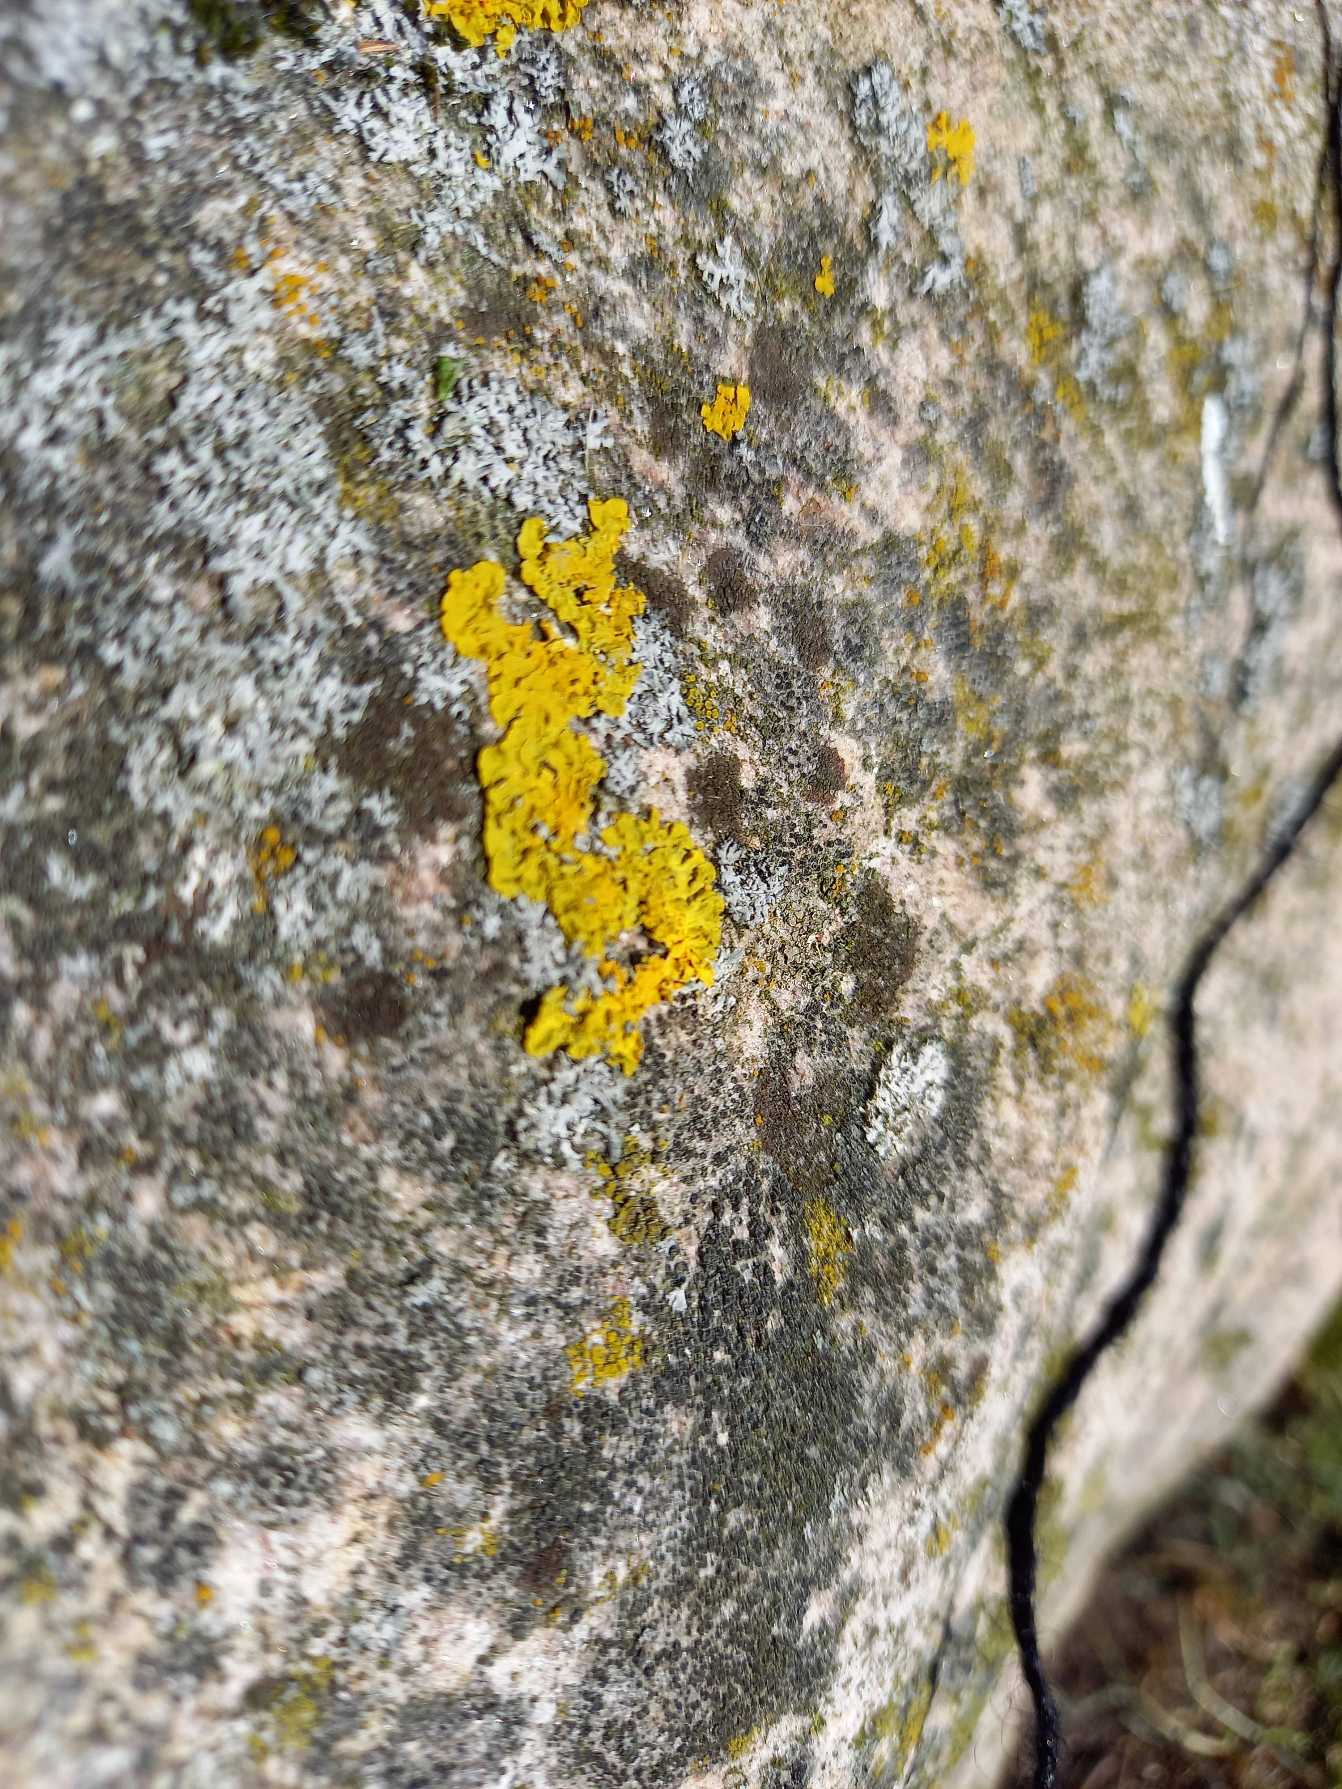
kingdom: Fungi
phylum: Ascomycota
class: Lecanoromycetes
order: Teloschistales
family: Teloschistaceae
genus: Xanthoria
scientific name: Xanthoria parietina
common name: Almindelig væggelav
